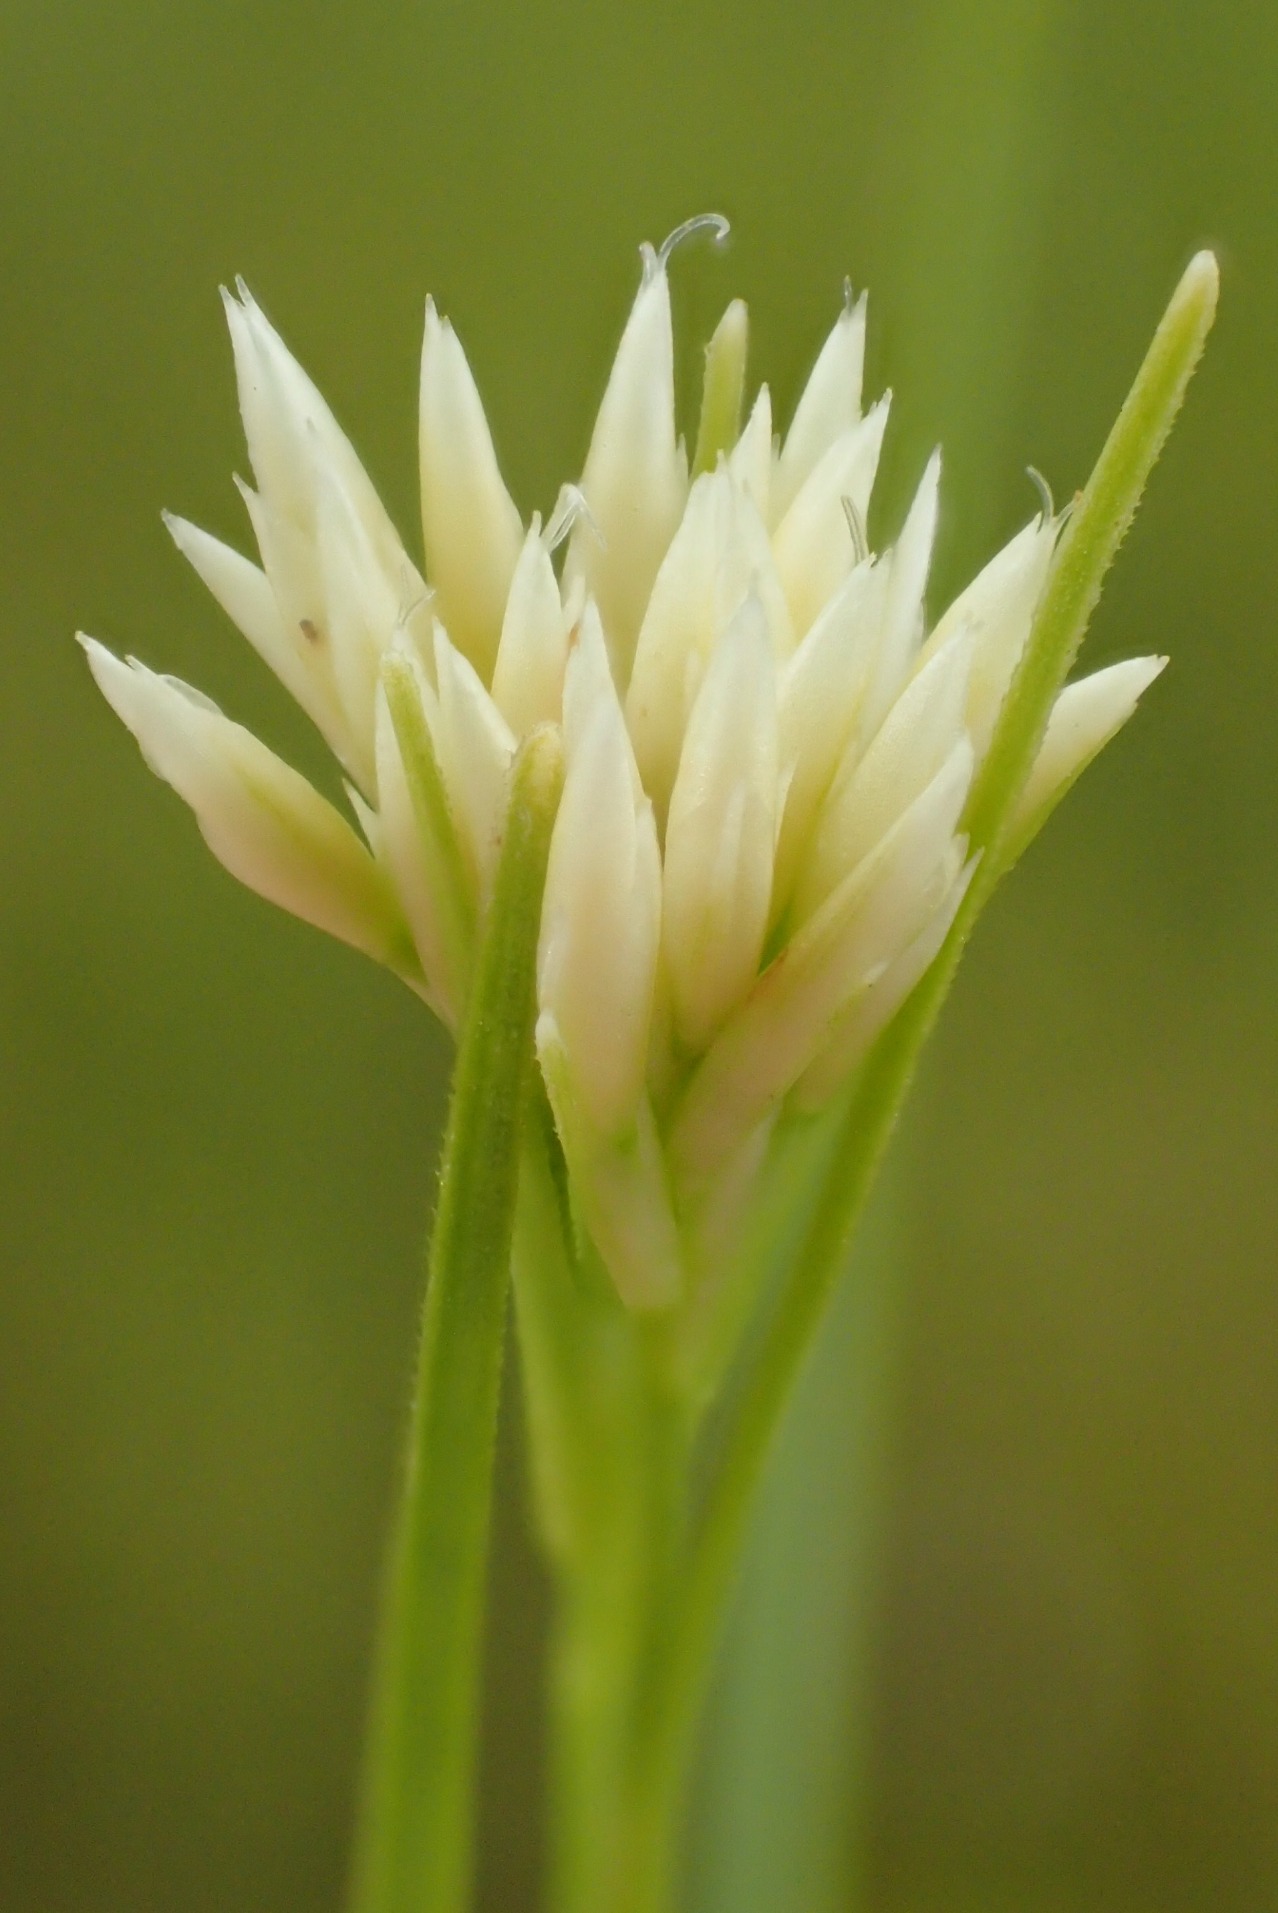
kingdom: Plantae
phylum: Tracheophyta
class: Liliopsida
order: Poales
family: Cyperaceae
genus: Rhynchospora
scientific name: Rhynchospora alba
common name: Hvid næbfrø
